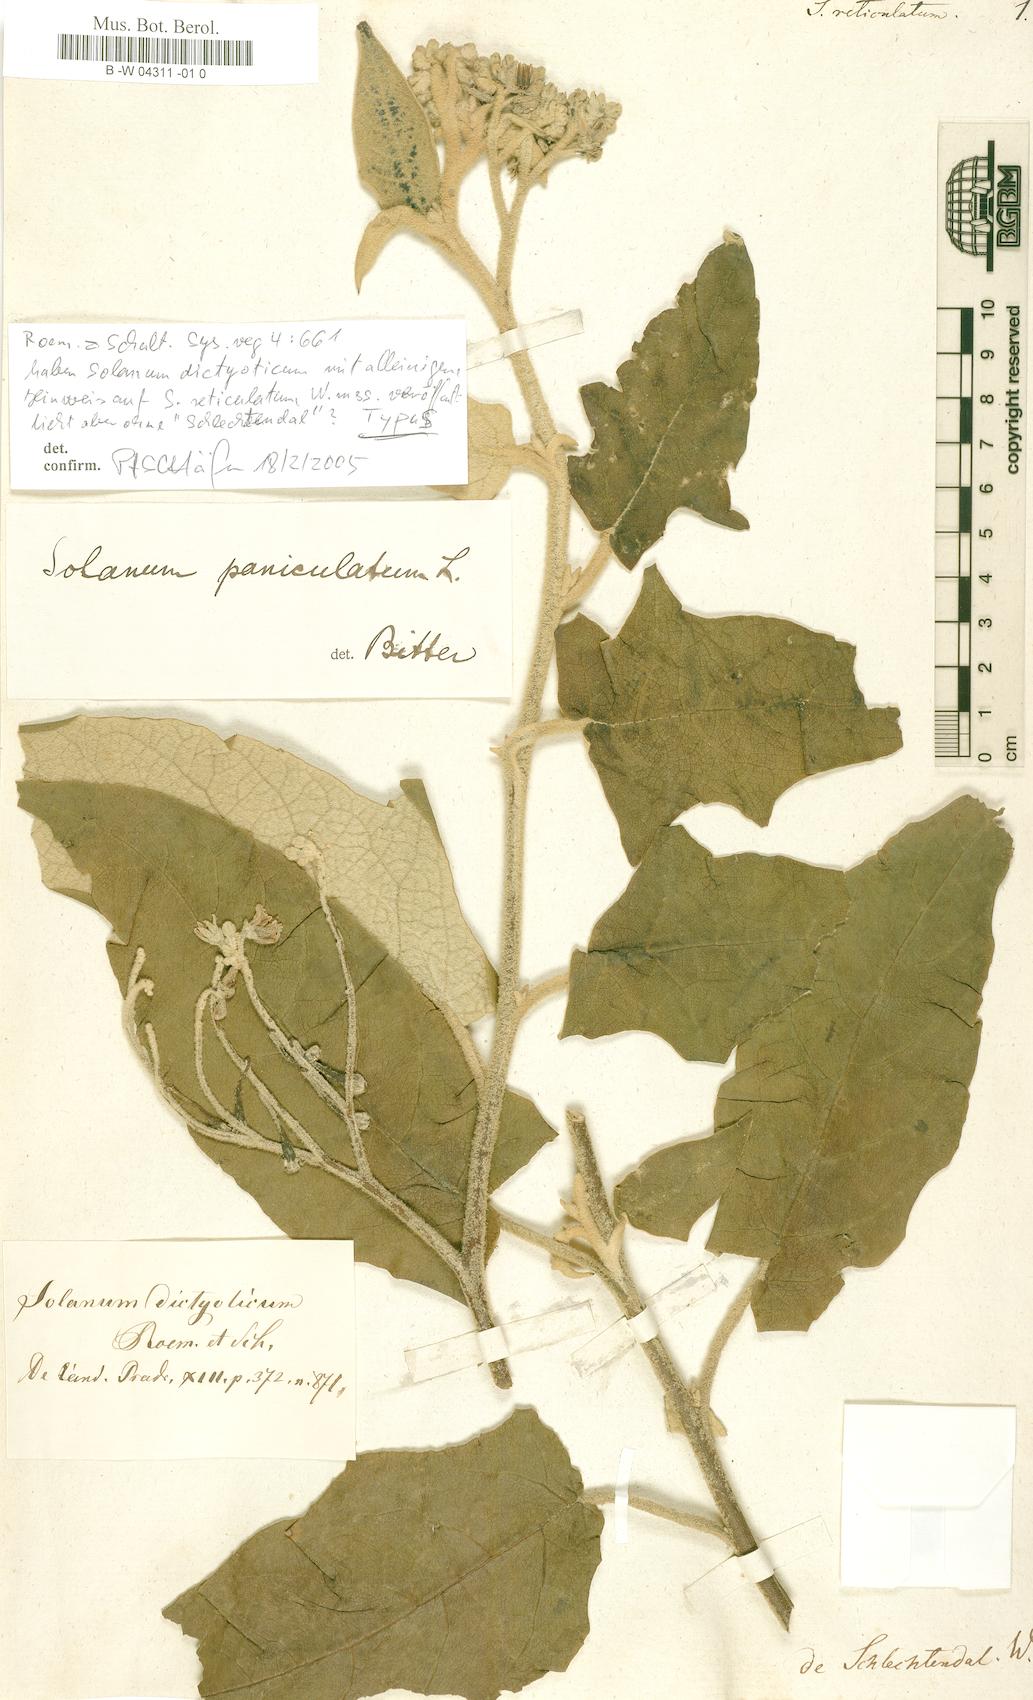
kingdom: Plantae
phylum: Tracheophyta
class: Magnoliopsida
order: Solanales
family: Solanaceae
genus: Solanum
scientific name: Solanum
